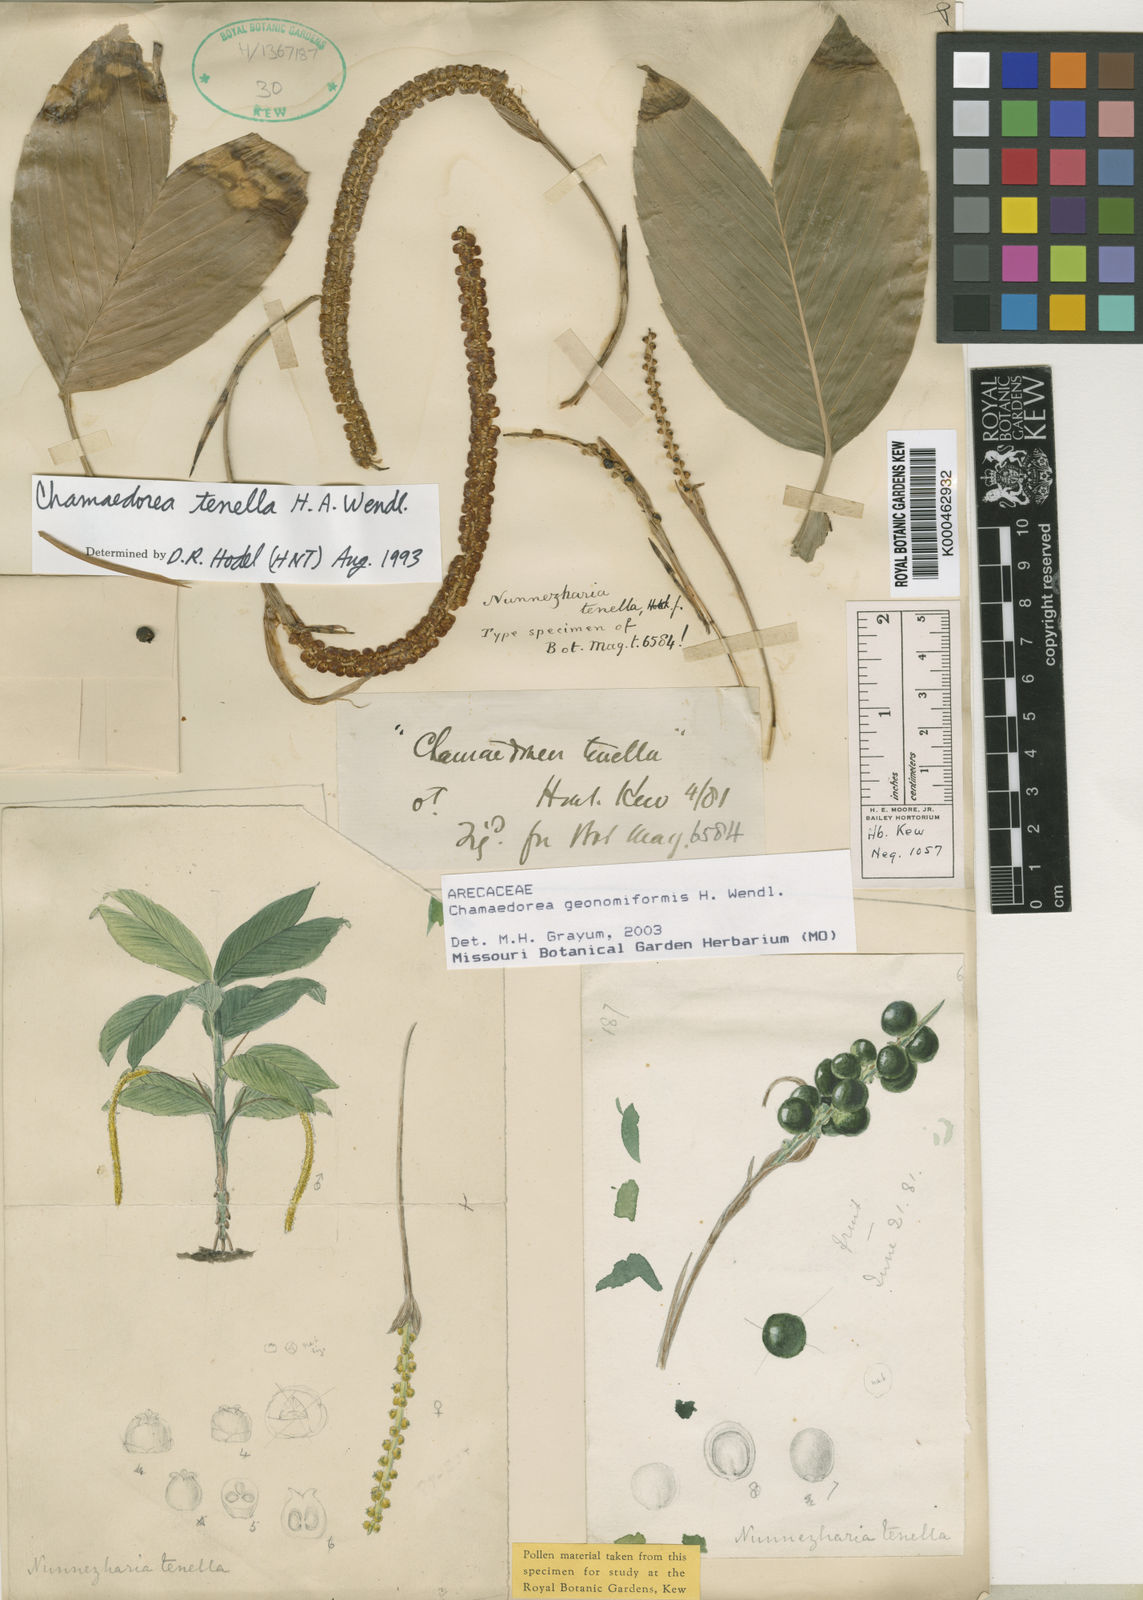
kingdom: Plantae
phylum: Tracheophyta
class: Liliopsida
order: Arecales
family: Arecaceae
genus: Chamaedorea
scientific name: Chamaedorea geonomiformis
